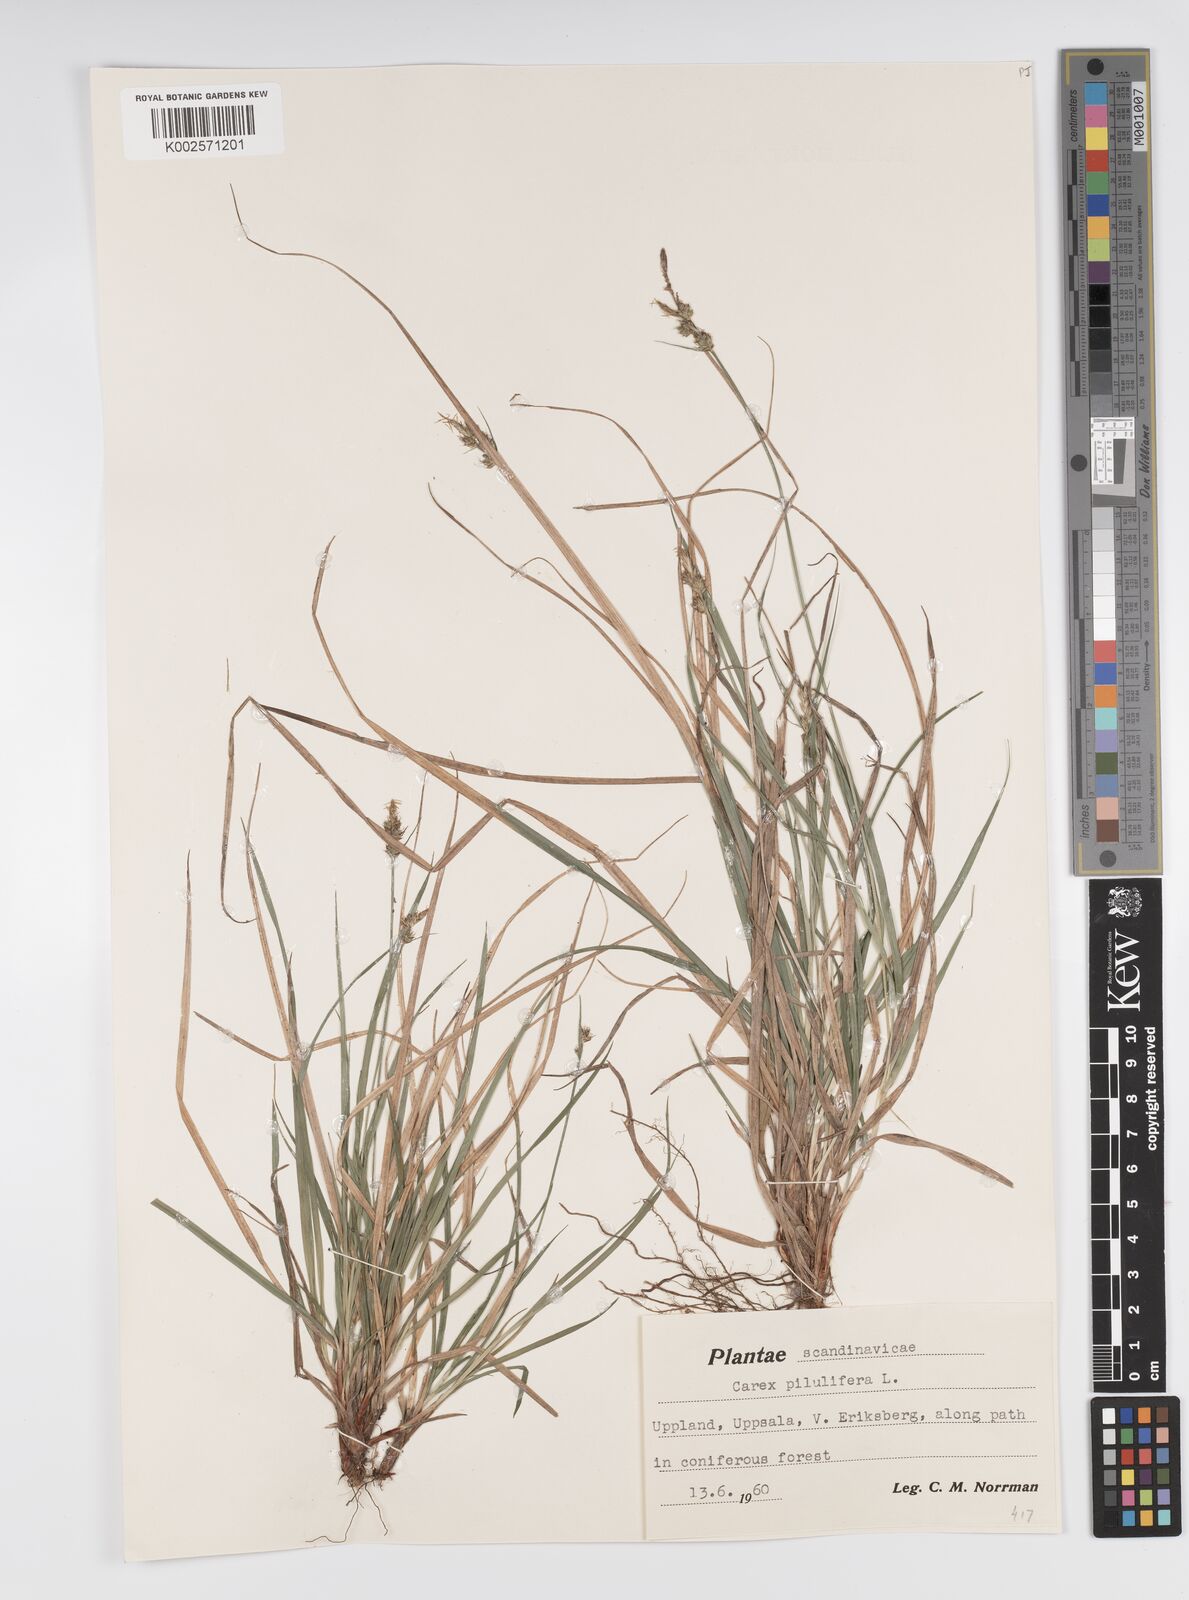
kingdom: Plantae
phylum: Tracheophyta
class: Liliopsida
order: Poales
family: Cyperaceae
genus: Carex
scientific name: Carex pilulifera
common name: Pill sedge
